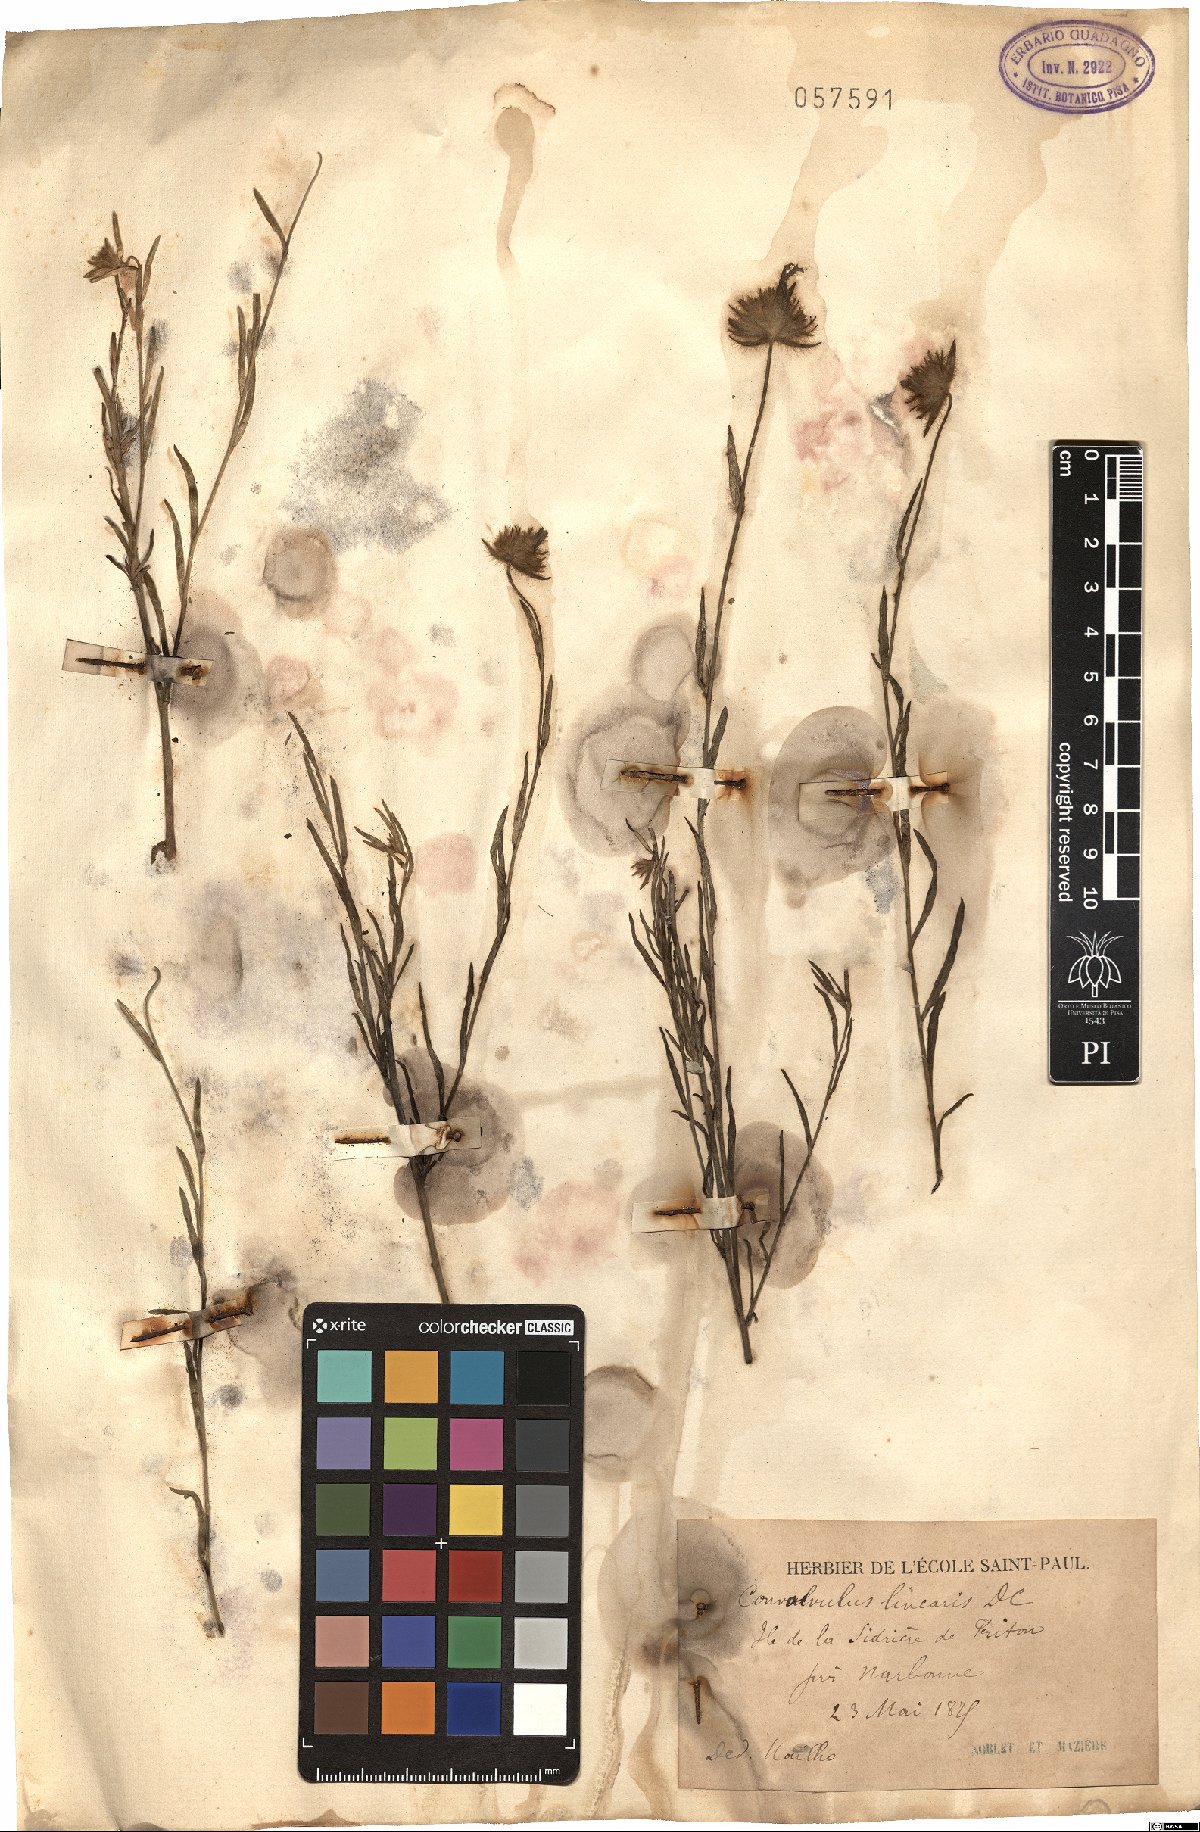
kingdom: Plantae
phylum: Tracheophyta
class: Magnoliopsida
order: Solanales
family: Convolvulaceae
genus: Convolvulus
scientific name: Convolvulus cantabrica
